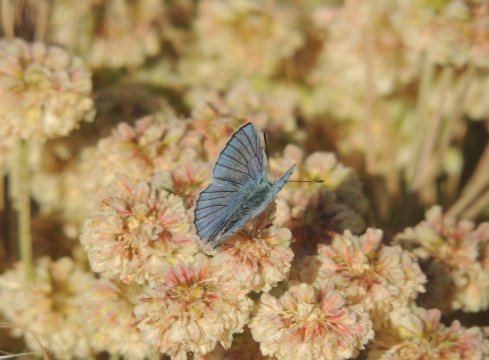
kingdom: Animalia
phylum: Arthropoda
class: Insecta
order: Lepidoptera
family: Lycaenidae
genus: Lycaena
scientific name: Lycaena heteronea
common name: Blue Copper
